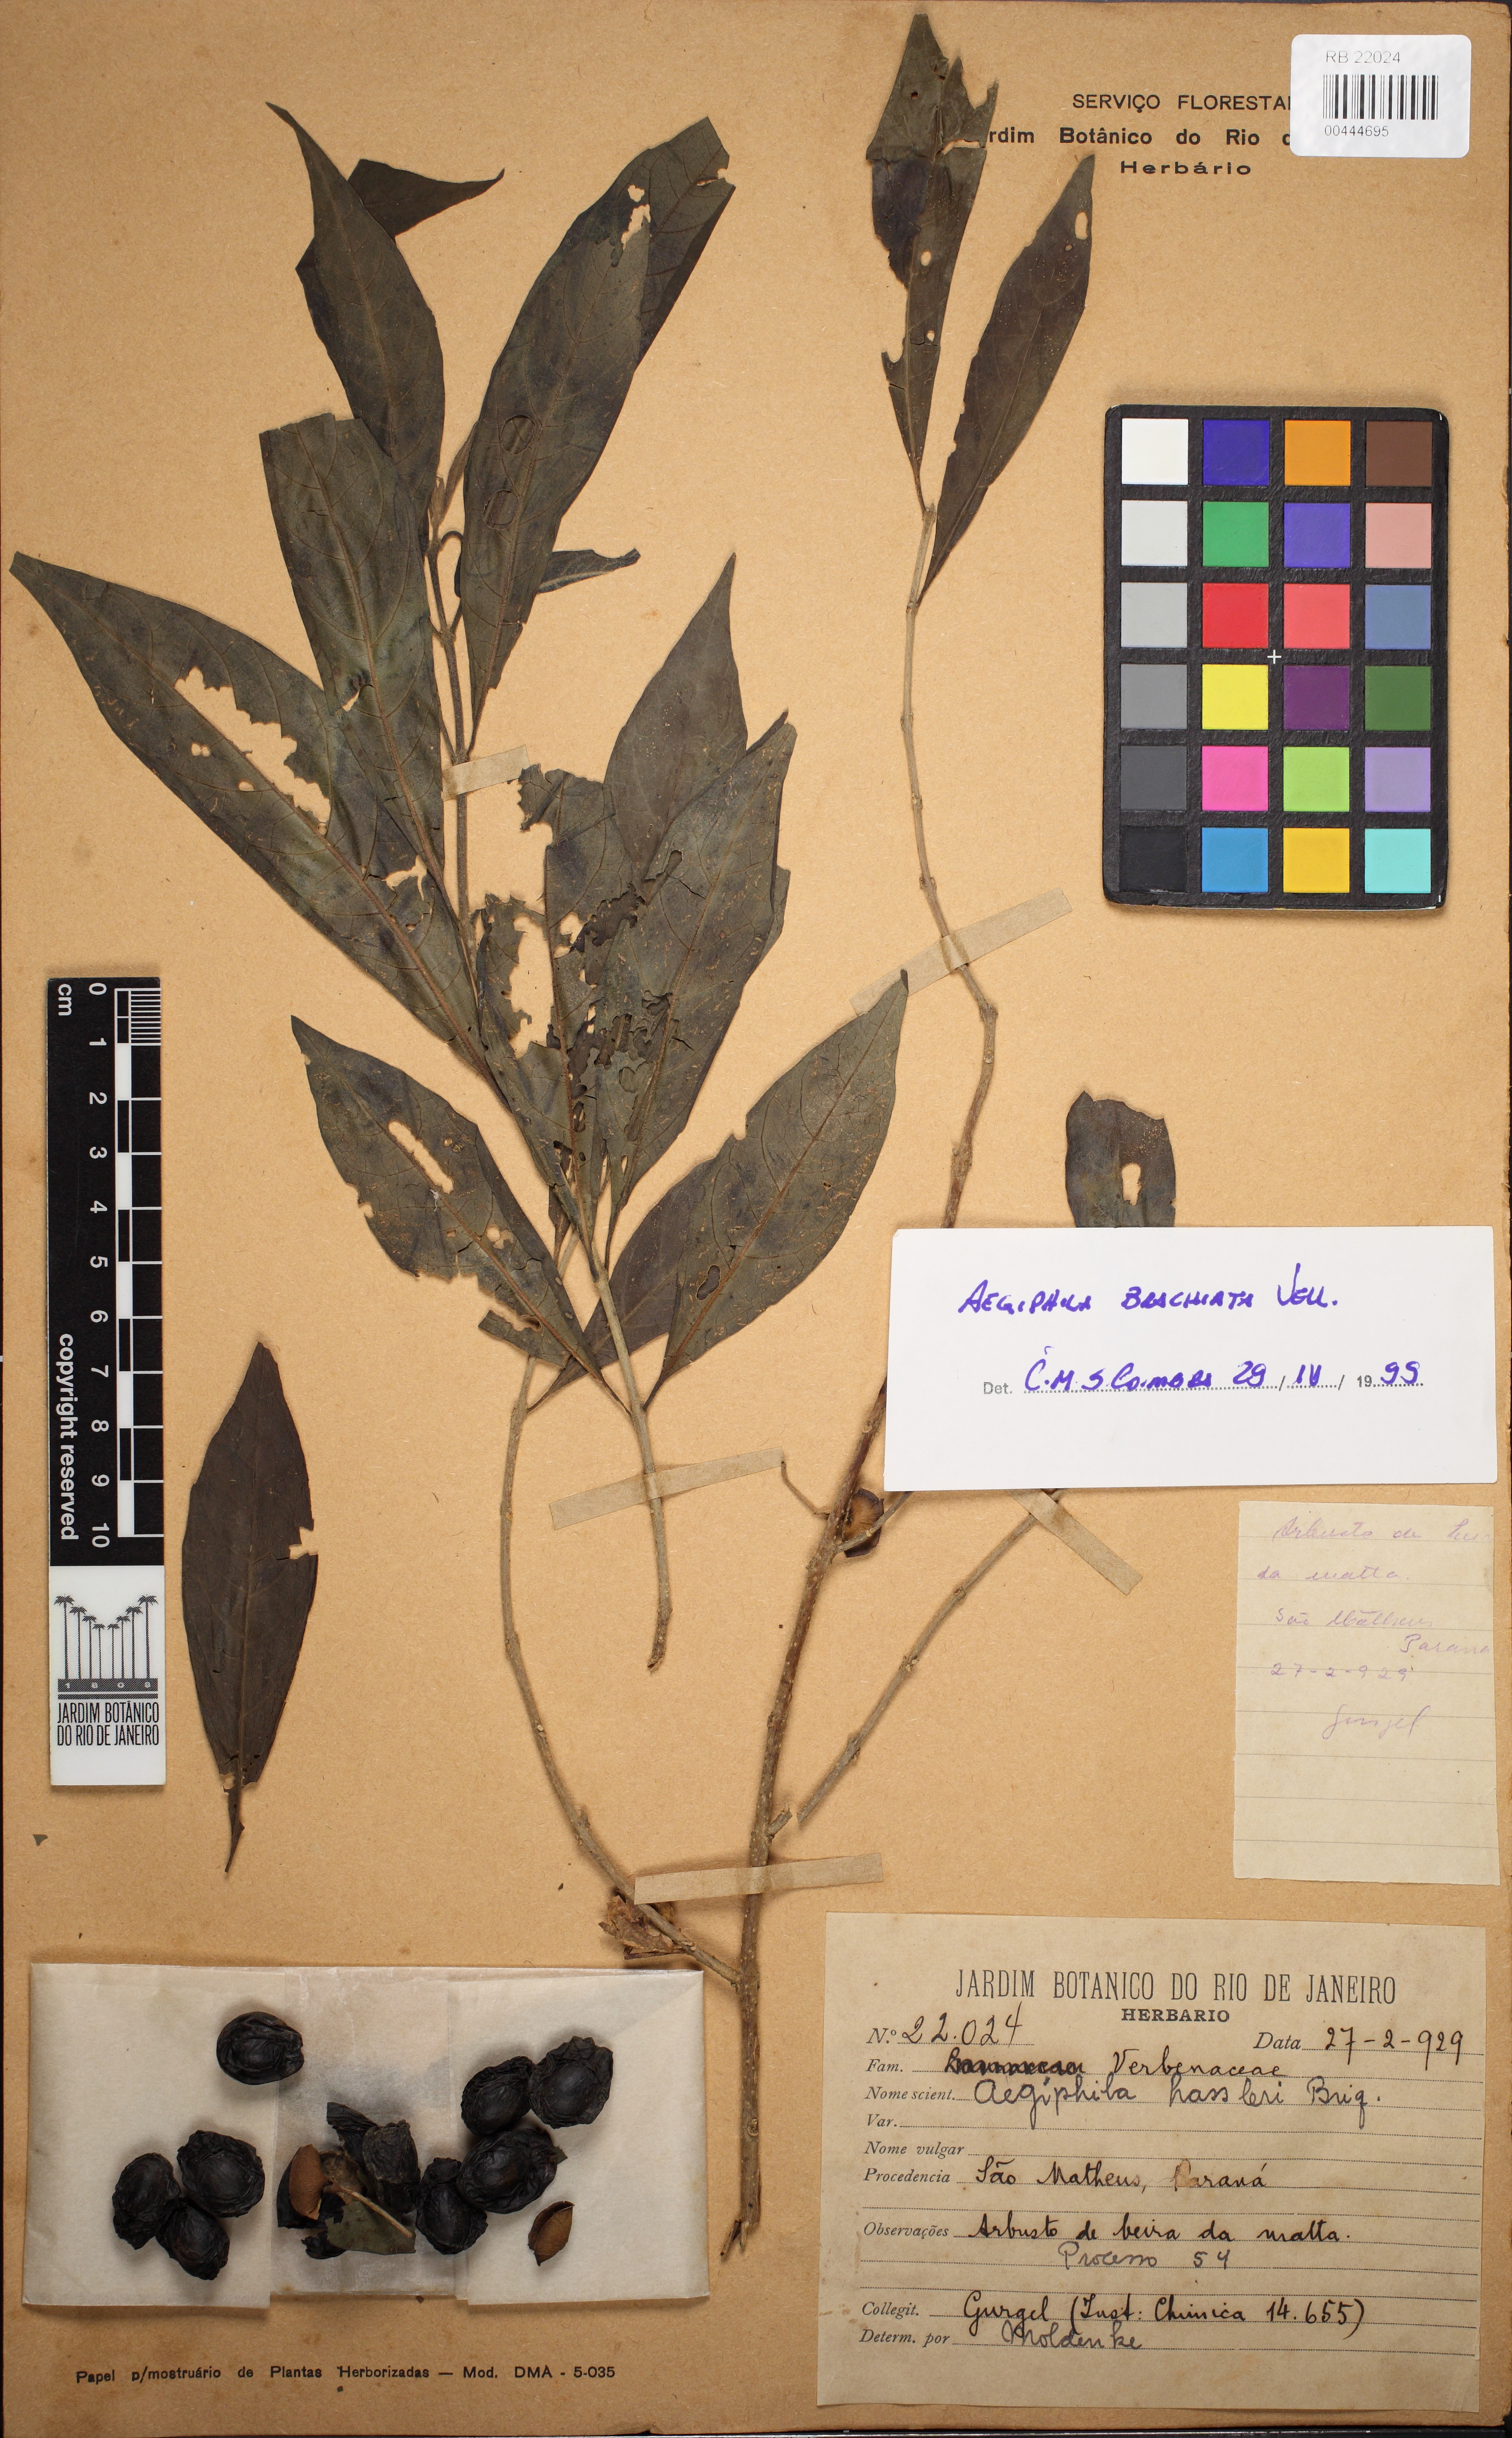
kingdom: Plantae
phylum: Tracheophyta
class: Magnoliopsida
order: Lamiales
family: Lamiaceae
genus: Aegiphila
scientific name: Aegiphila brachiata
